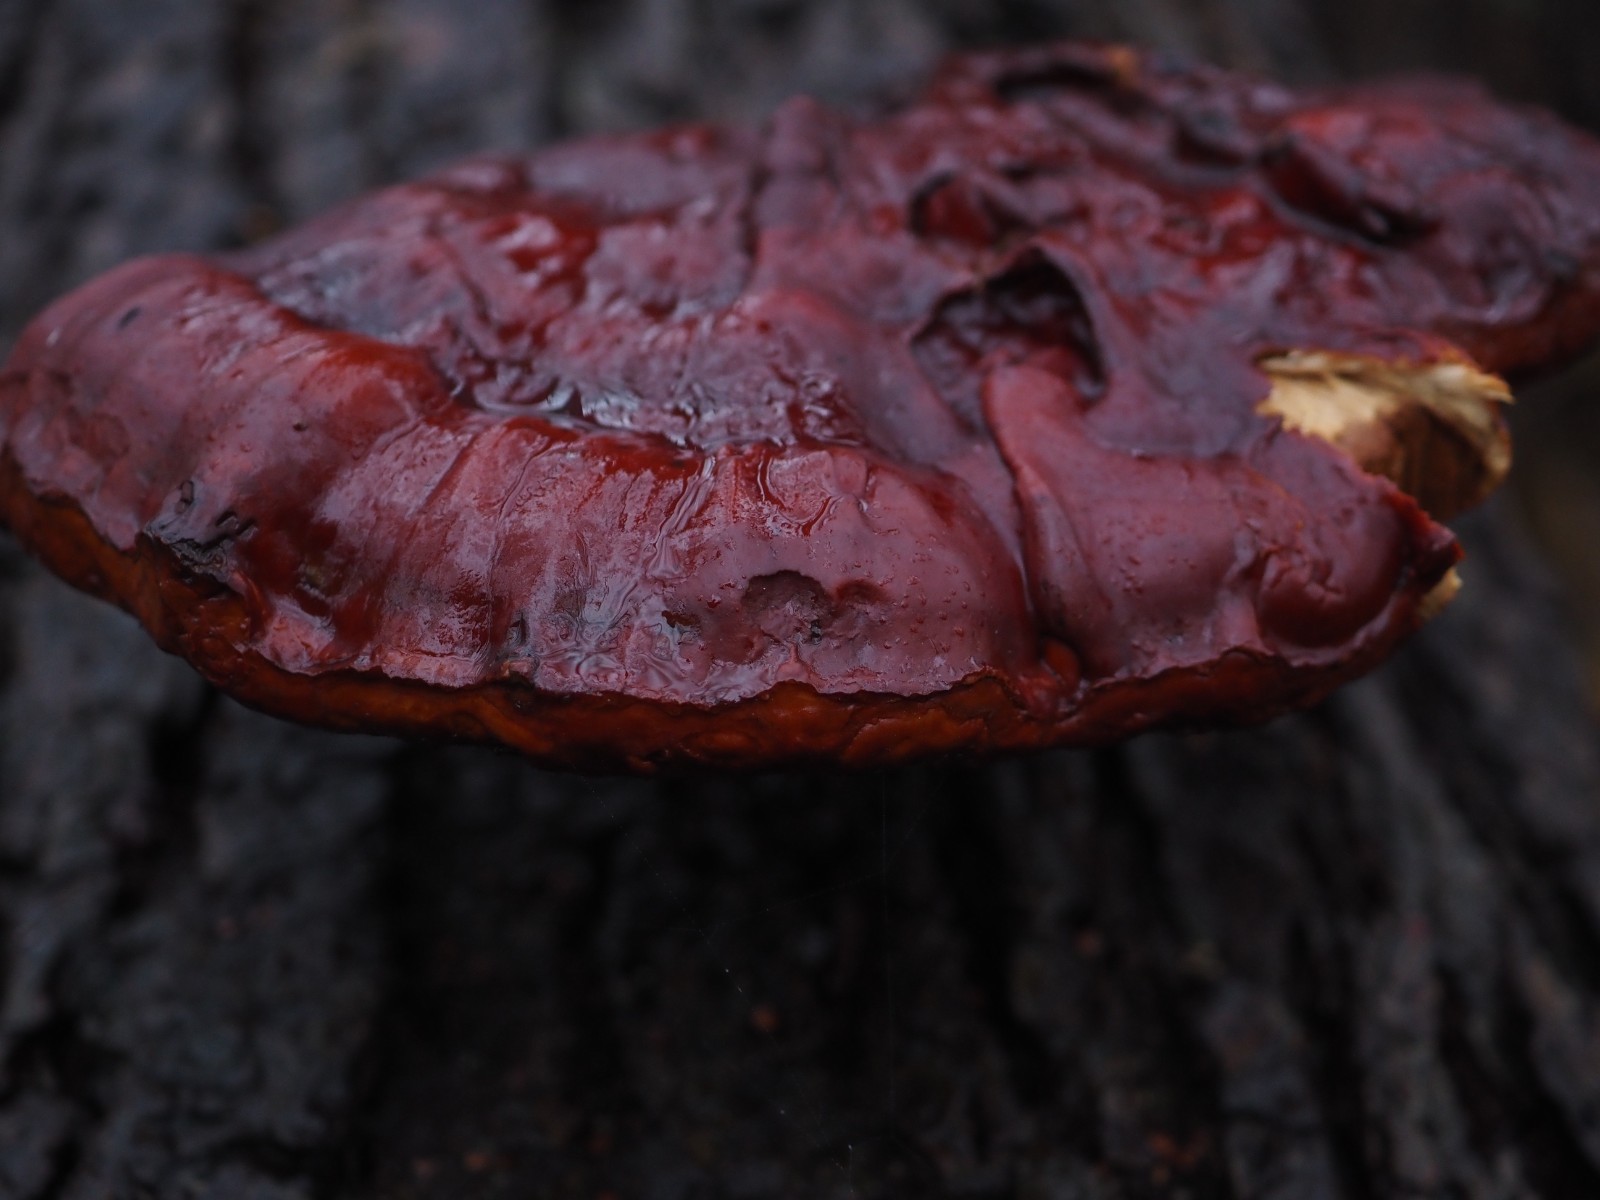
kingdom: Fungi
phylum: Basidiomycota
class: Agaricomycetes
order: Polyporales
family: Polyporaceae
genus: Ganoderma
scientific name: Ganoderma lucidum
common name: skinnende lakporesvamp
